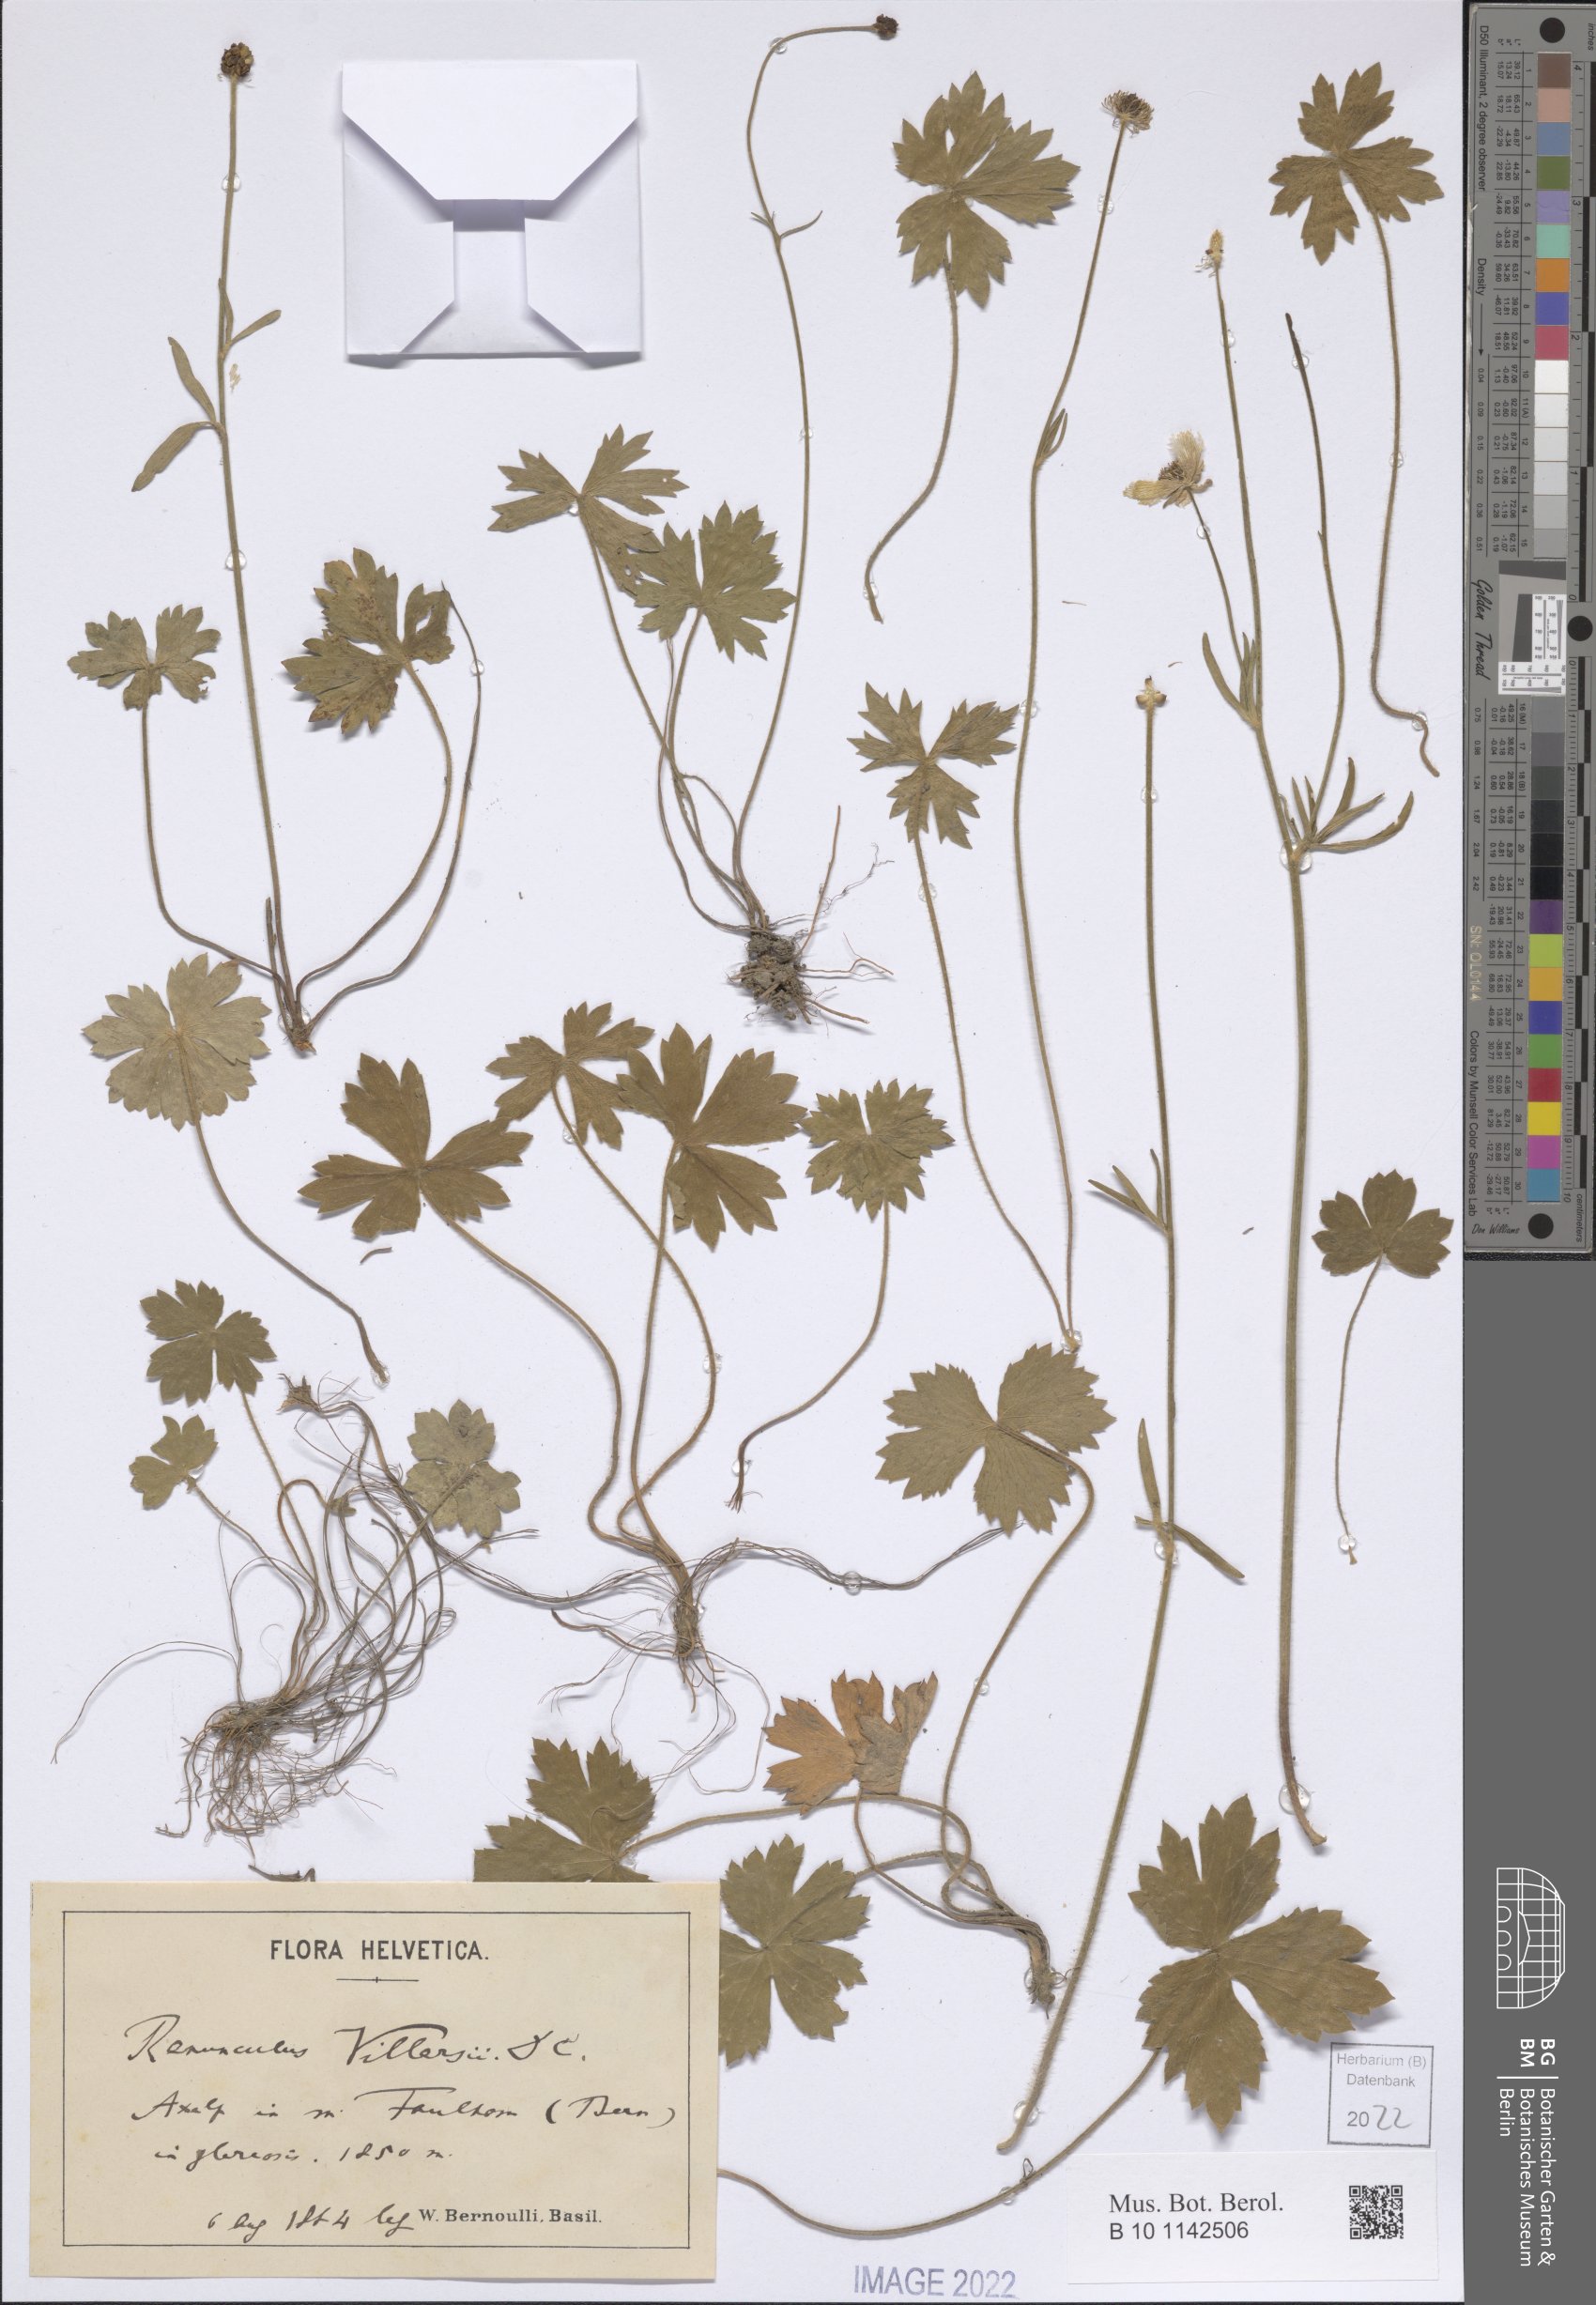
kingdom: Plantae
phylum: Tracheophyta
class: Magnoliopsida
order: Ranunculales
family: Ranunculaceae
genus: Ranunculus
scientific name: Ranunculus villarsii
